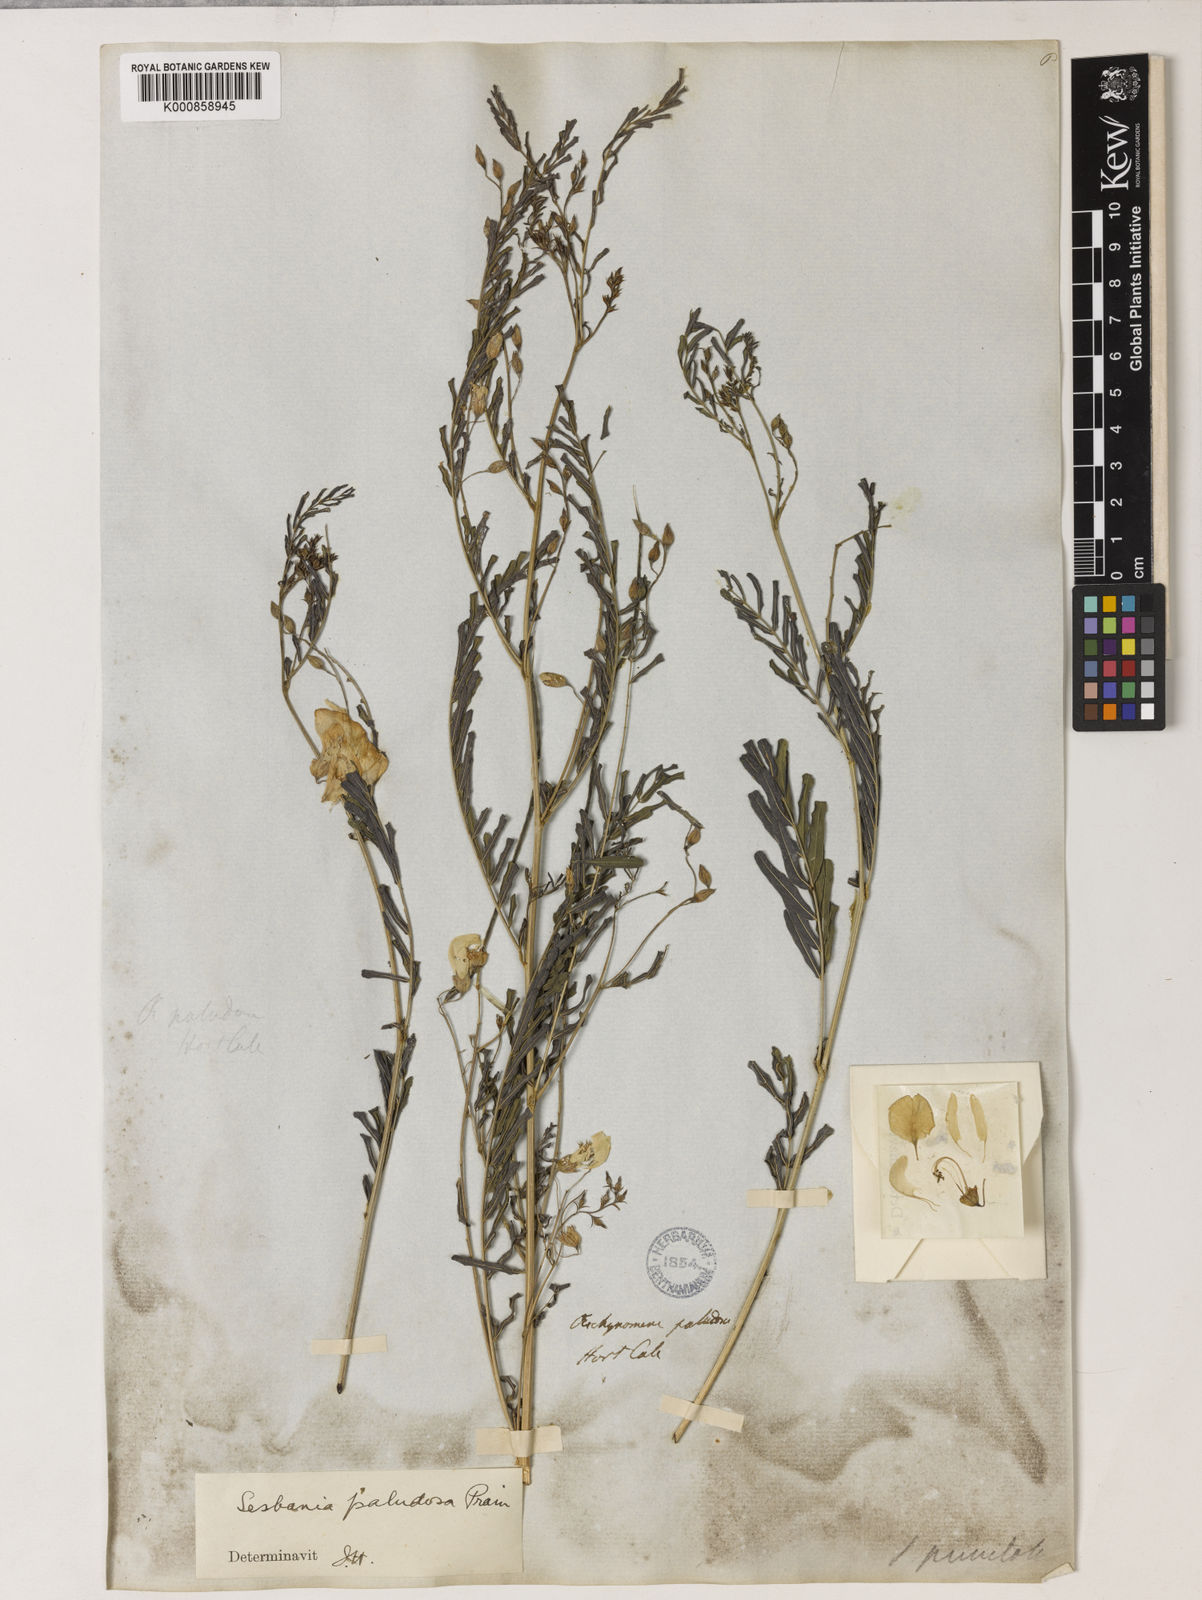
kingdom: Plantae
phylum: Tracheophyta
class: Magnoliopsida
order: Fabales
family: Fabaceae
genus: Sesbania
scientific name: Sesbania bispinosa
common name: Sesbania pea
